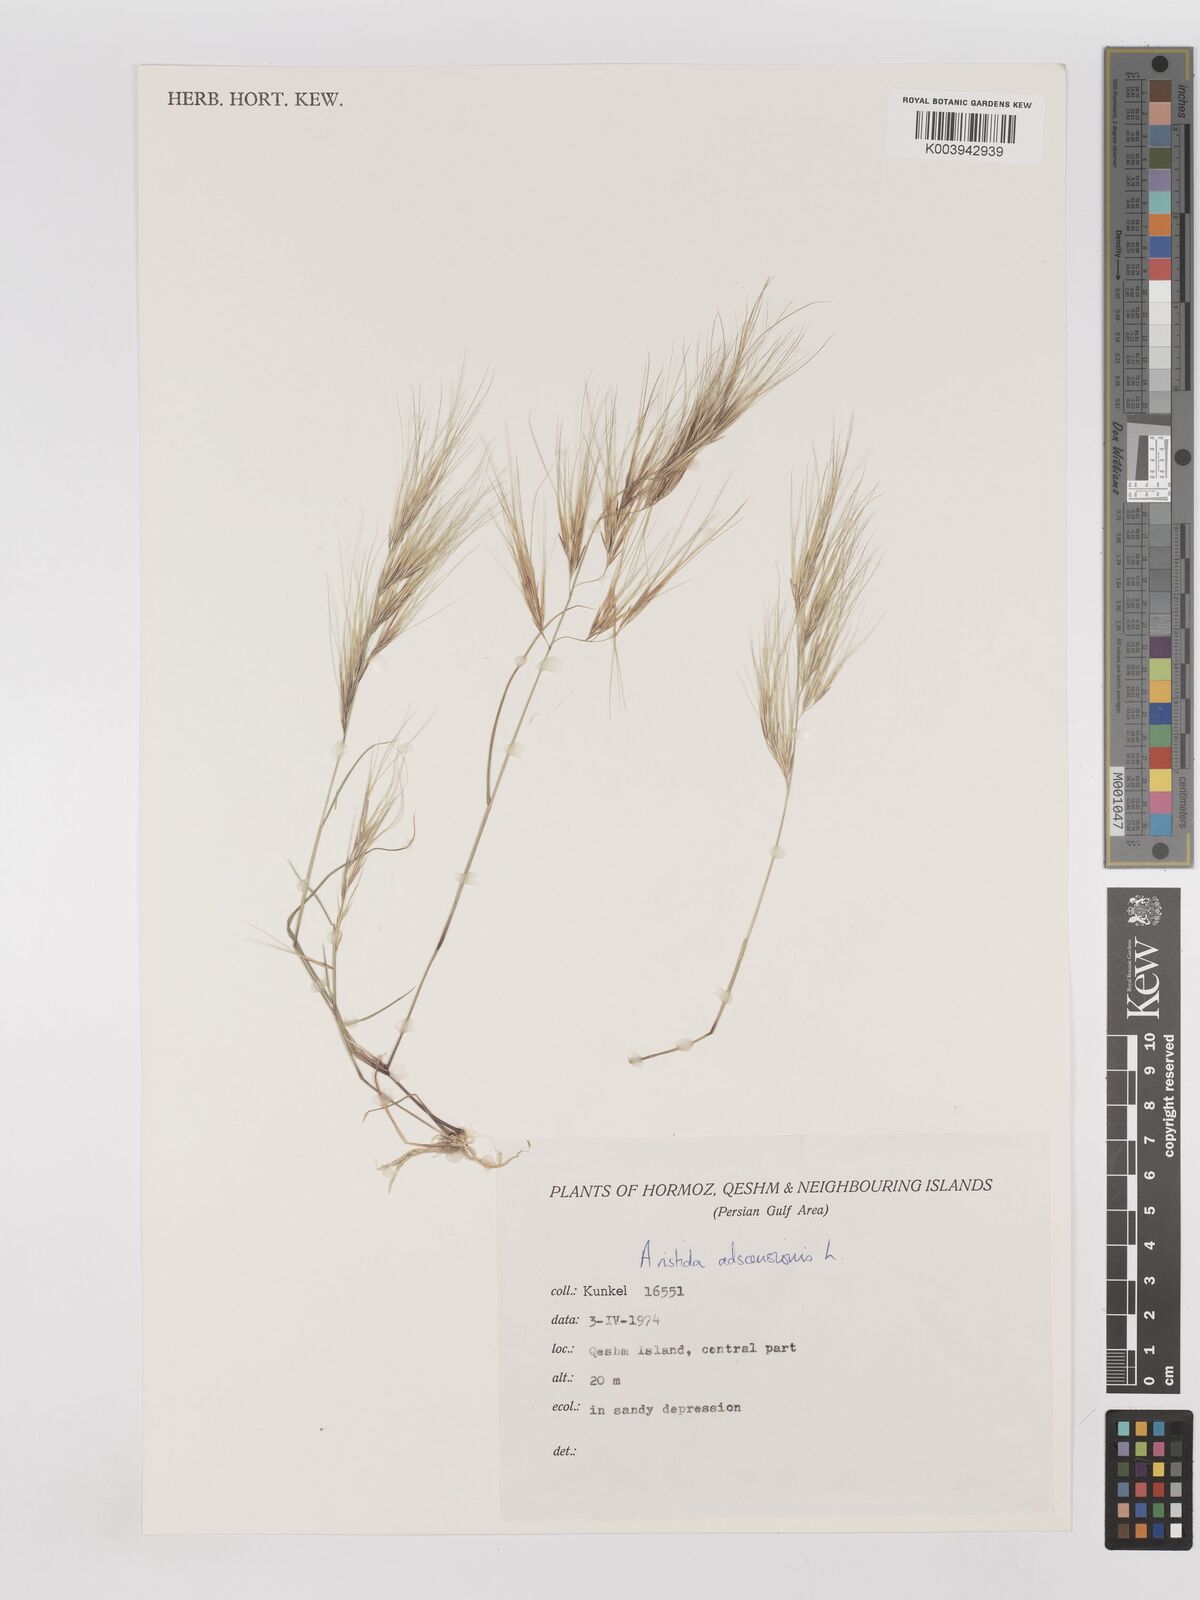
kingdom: Plantae
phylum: Tracheophyta
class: Liliopsida
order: Poales
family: Poaceae
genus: Aristida
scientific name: Aristida adscensionis
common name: Sixweeks threeawn
